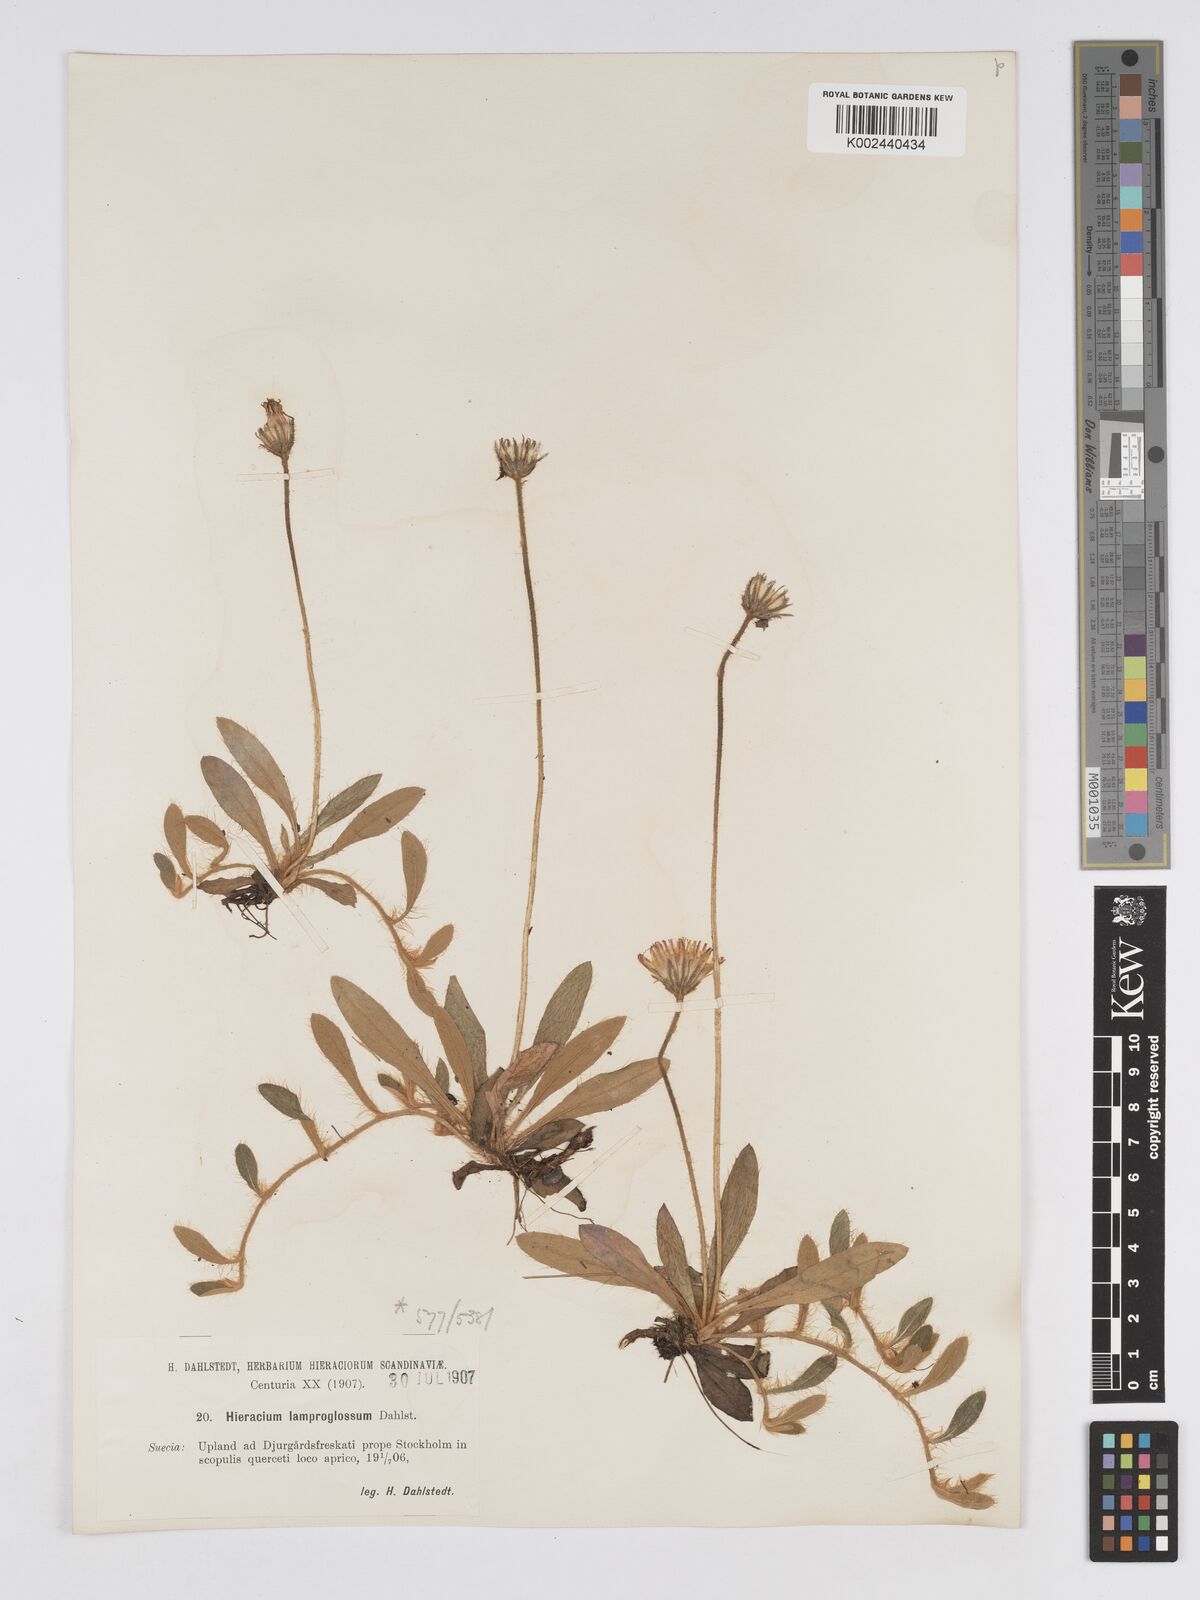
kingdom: Plantae
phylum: Tracheophyta
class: Magnoliopsida
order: Asterales
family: Asteraceae
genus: Pilosella
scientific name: Pilosella officinarum
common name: Mouse-ear hawkweed
